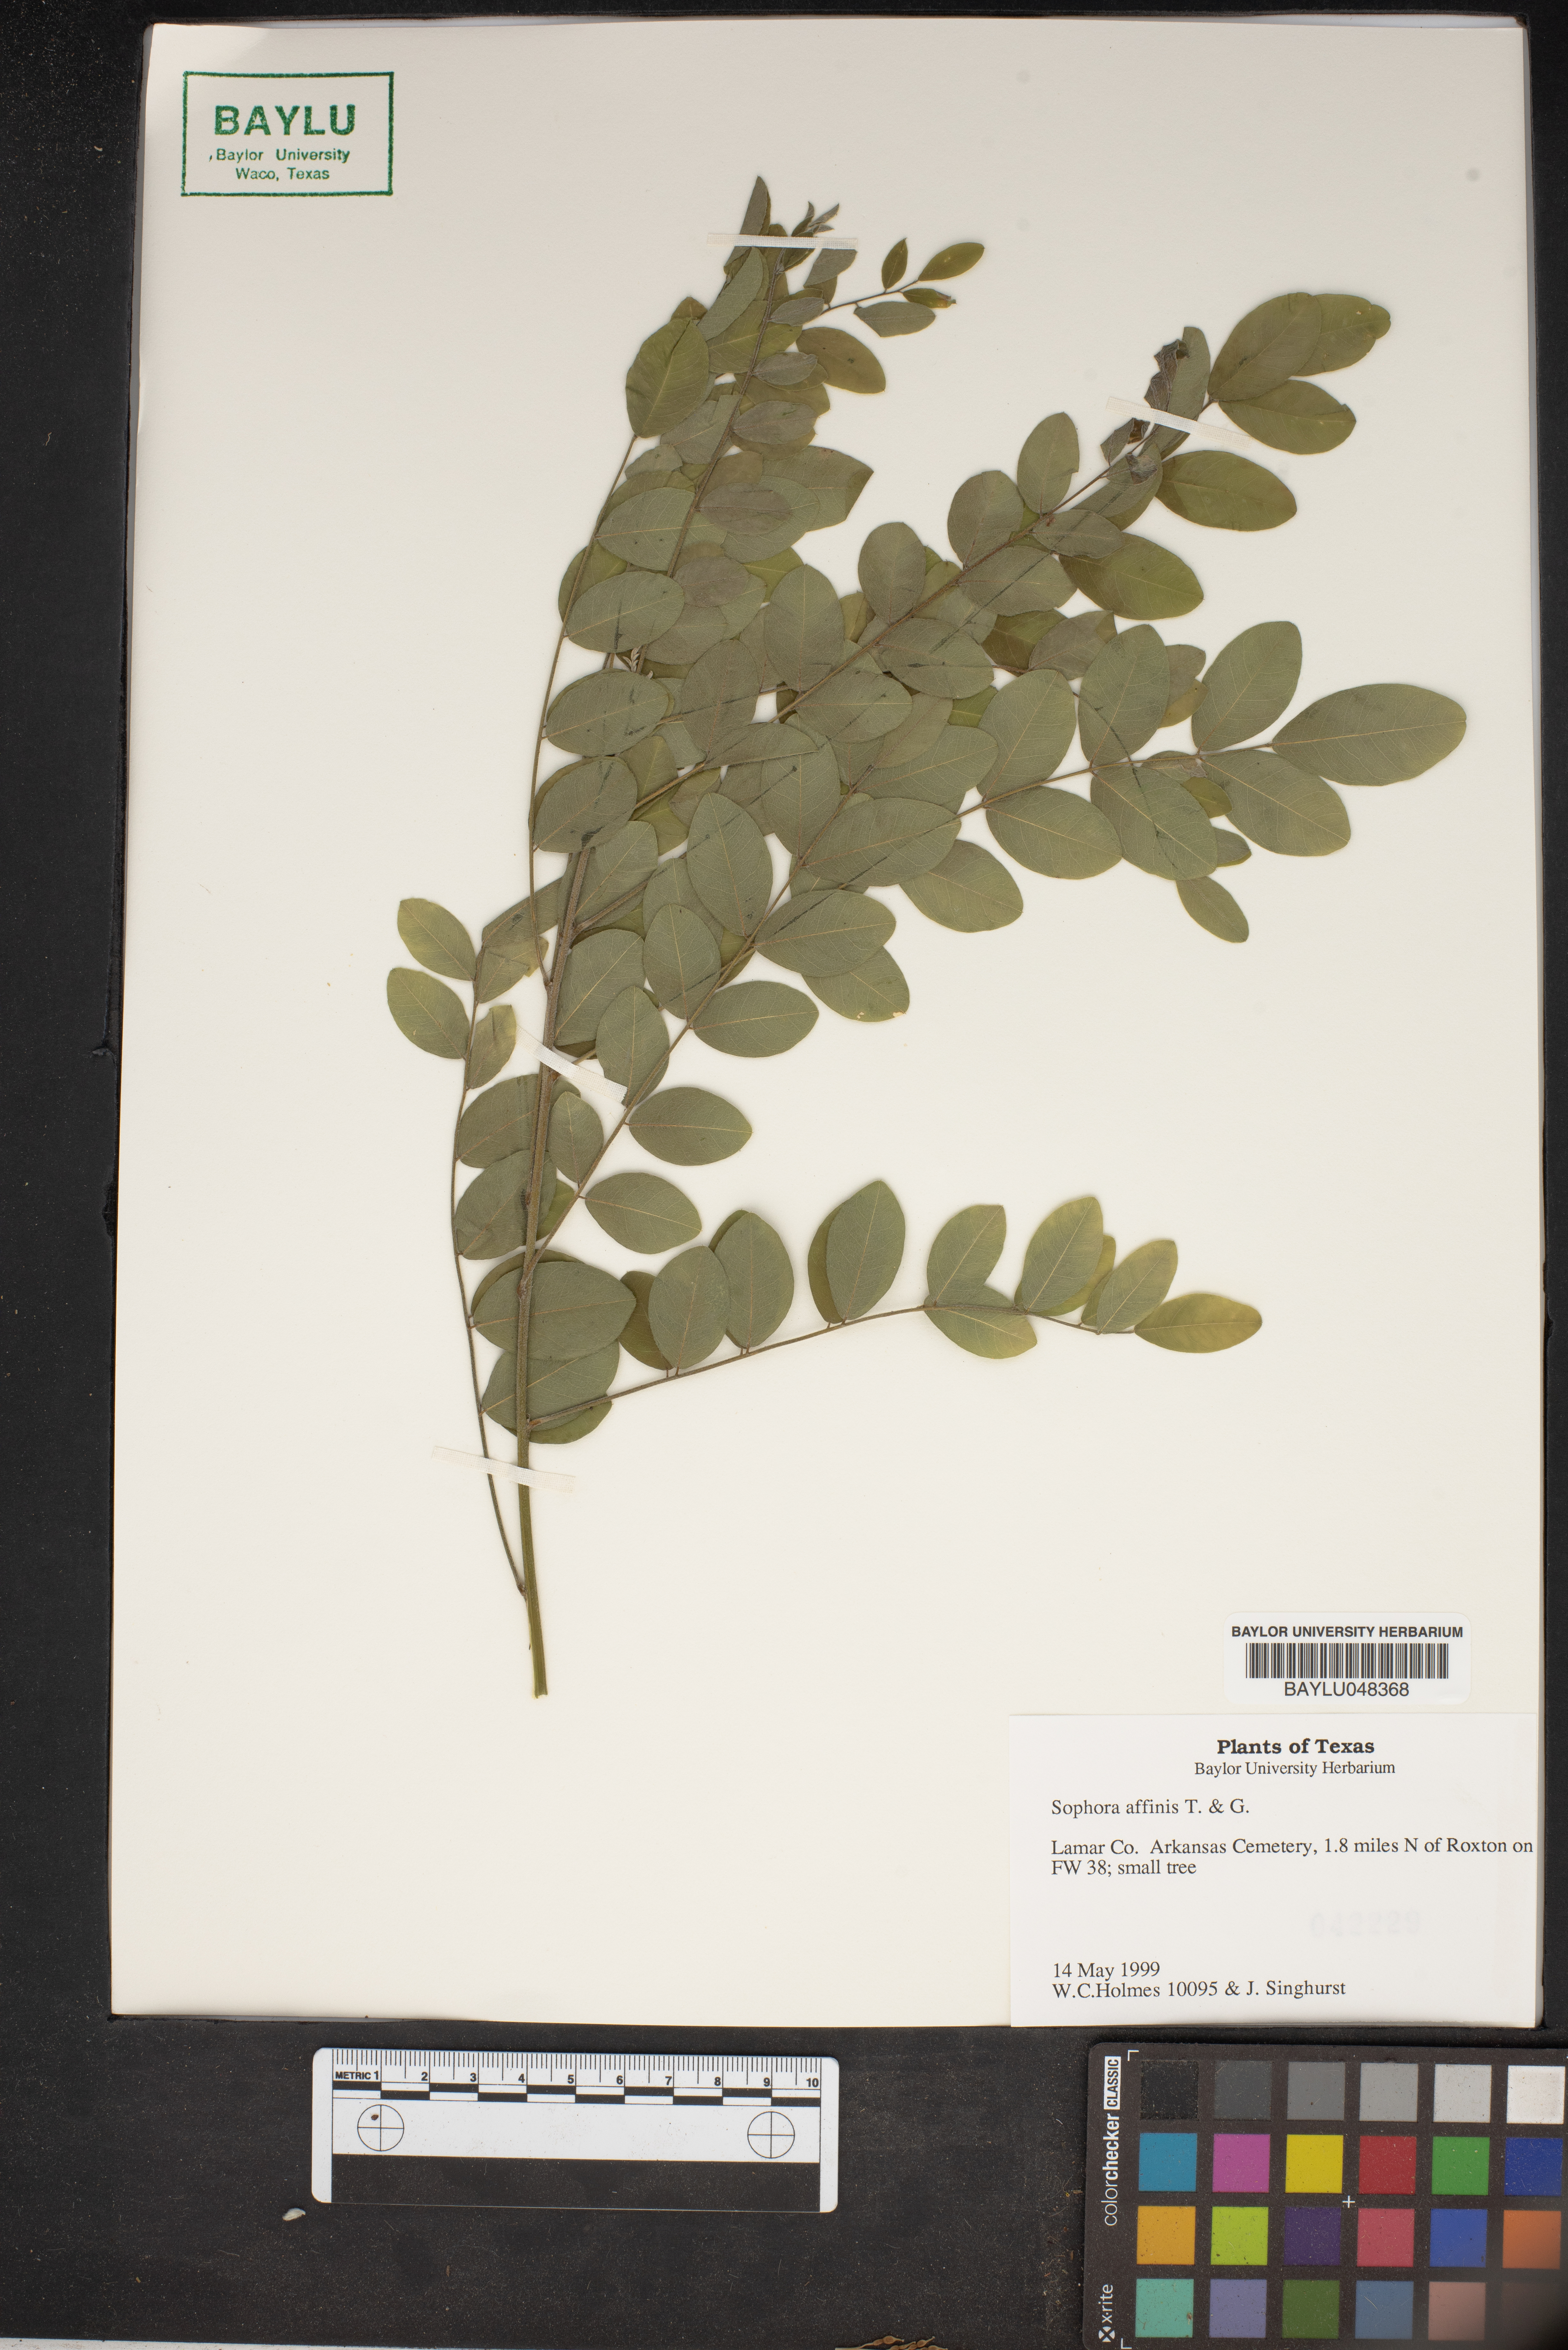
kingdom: Plantae
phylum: Tracheophyta
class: Magnoliopsida
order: Fabales
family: Fabaceae
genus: Styphnolobium
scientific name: Styphnolobium affine
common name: Texas sophora
